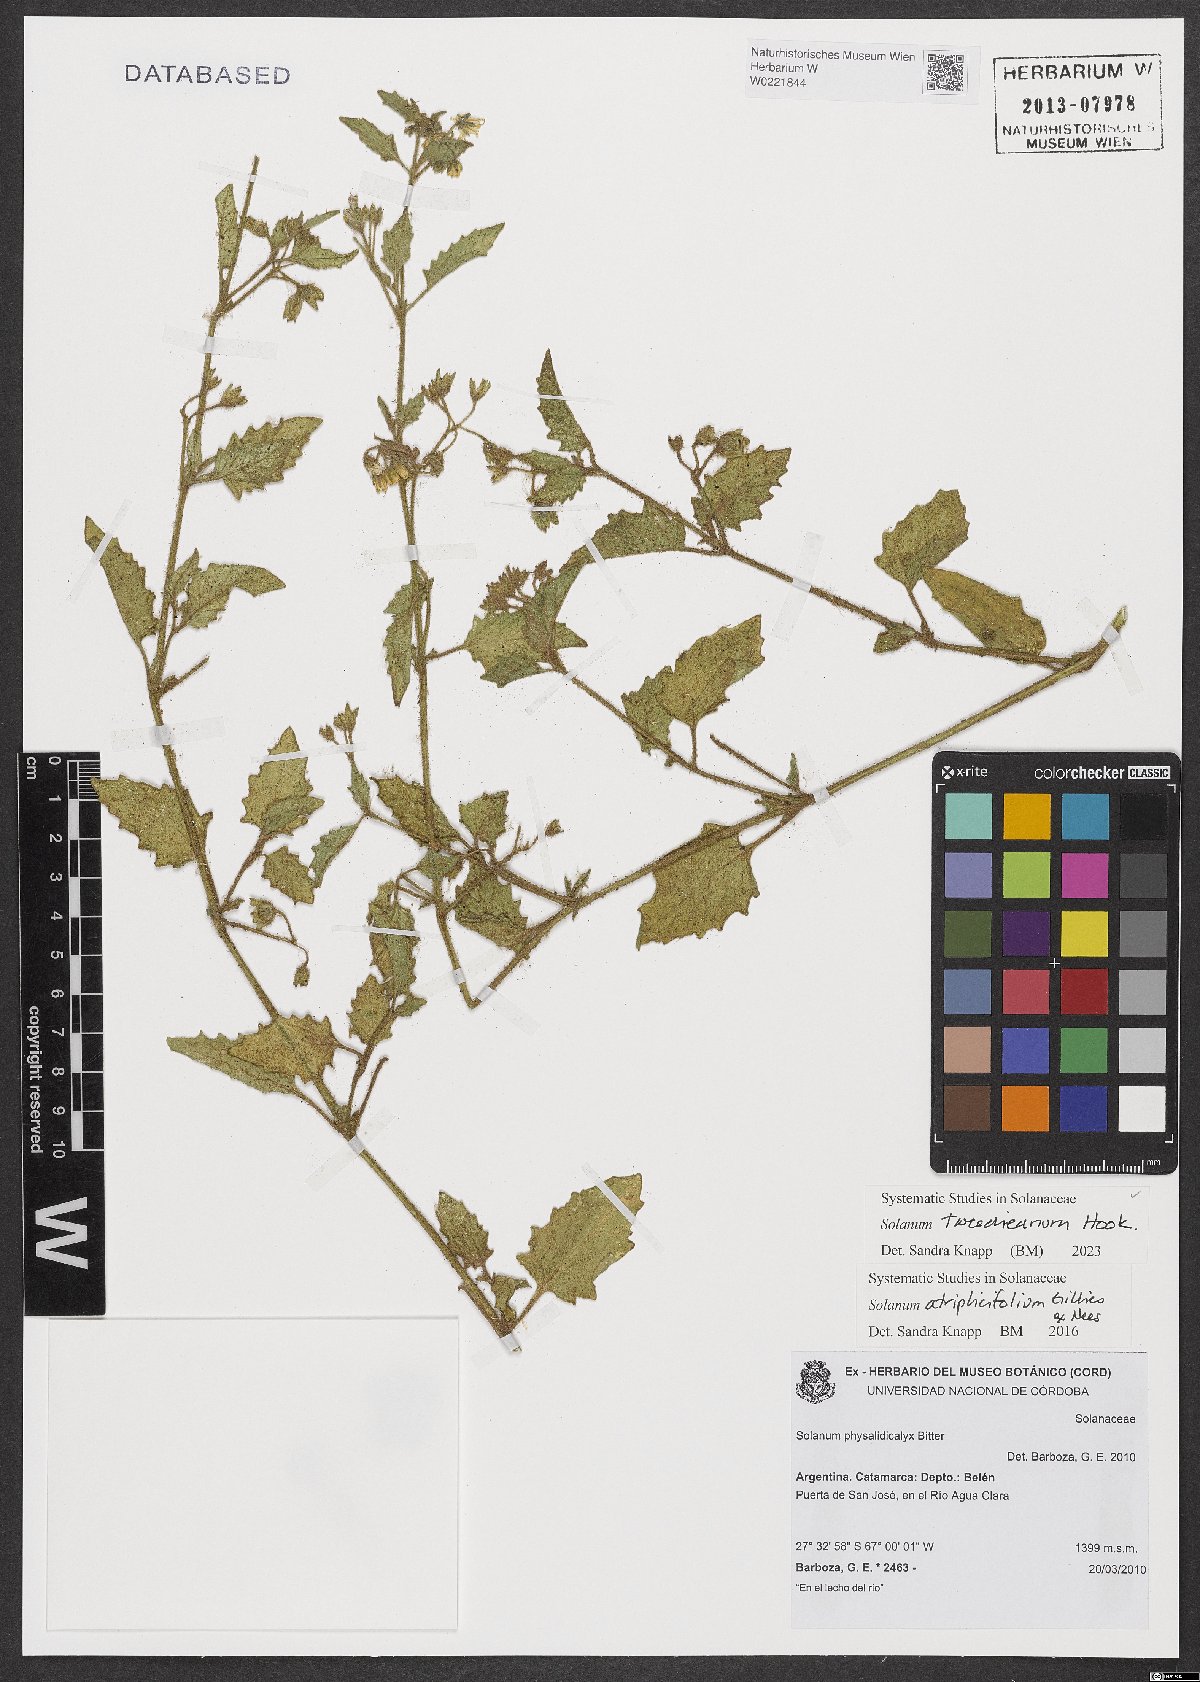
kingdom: Plantae
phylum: Tracheophyta
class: Magnoliopsida
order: Solanales
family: Solanaceae
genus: Solanum
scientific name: Solanum tweedieanum
